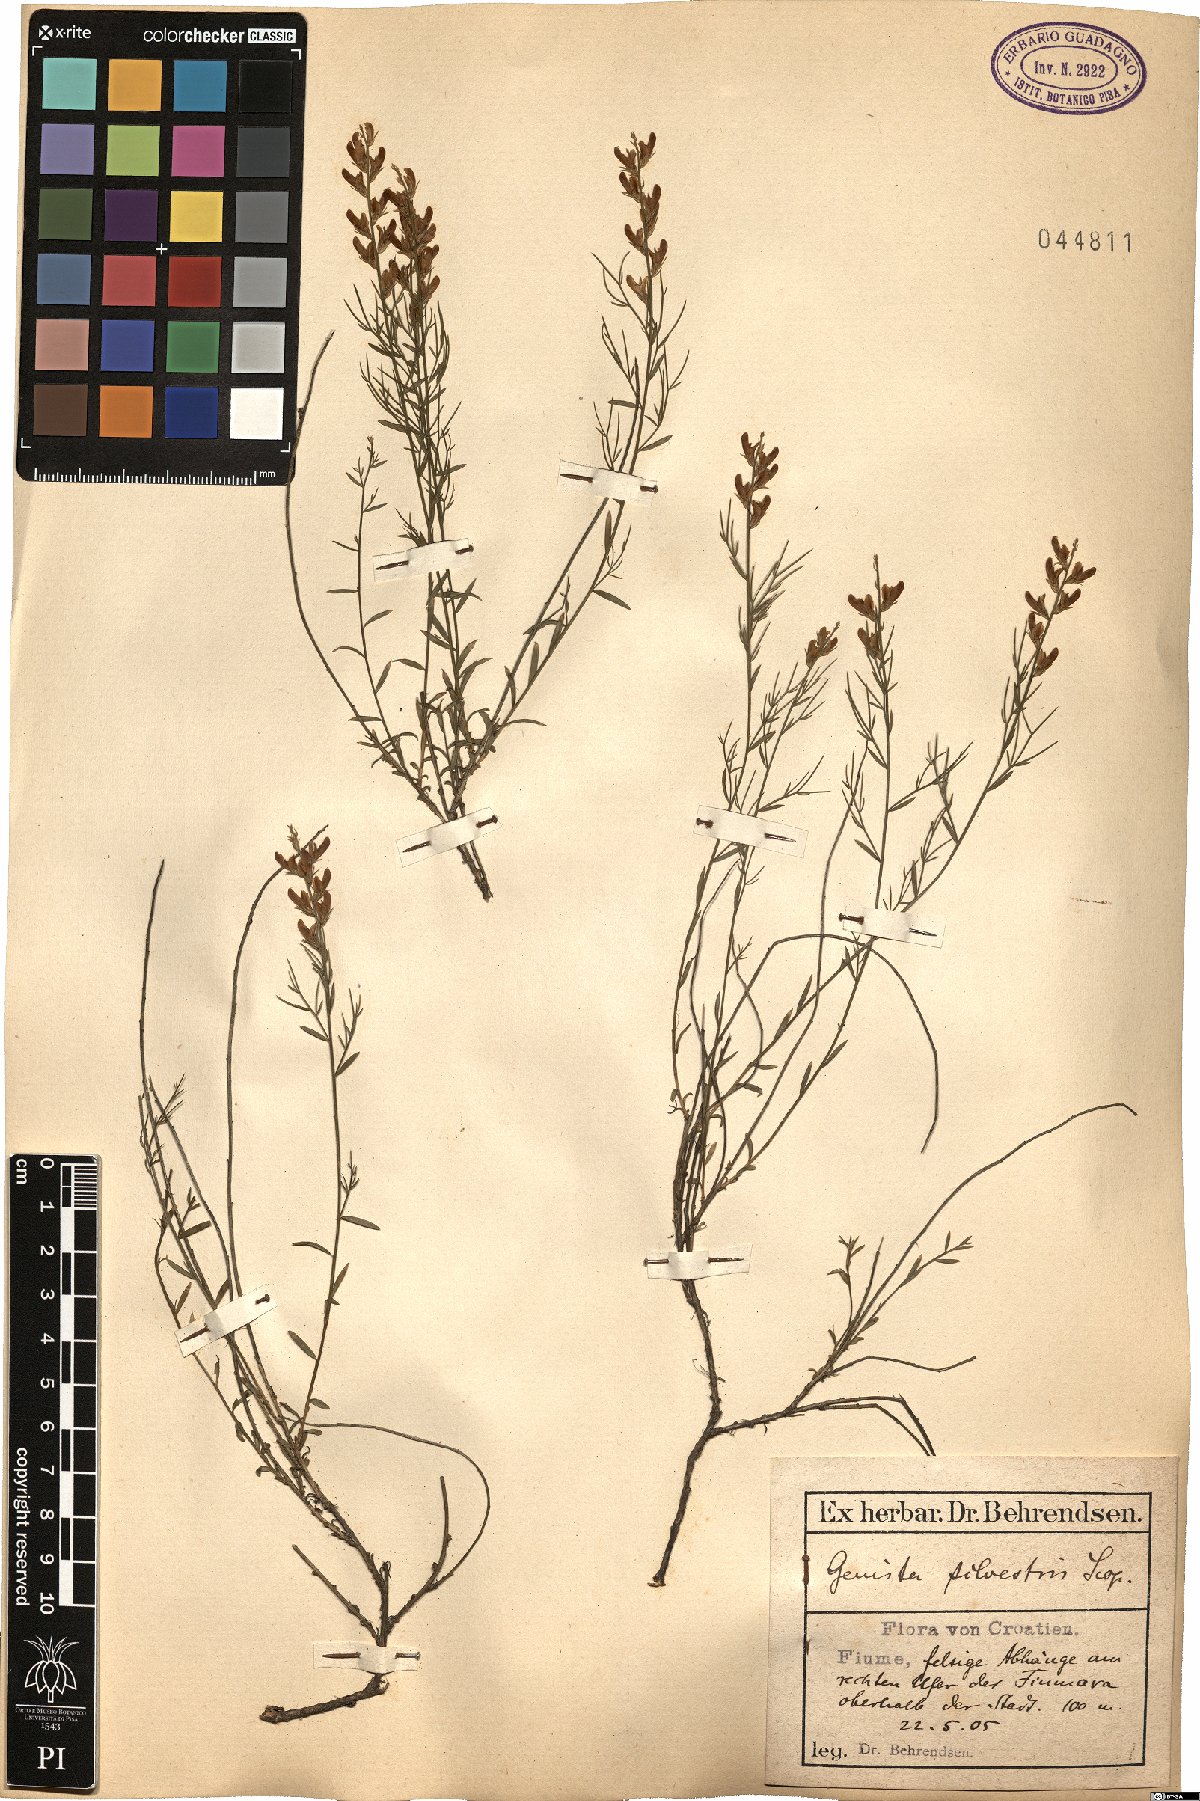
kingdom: Plantae
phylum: Tracheophyta
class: Magnoliopsida
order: Fabales
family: Fabaceae
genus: Genista
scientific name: Genista sylvestris
